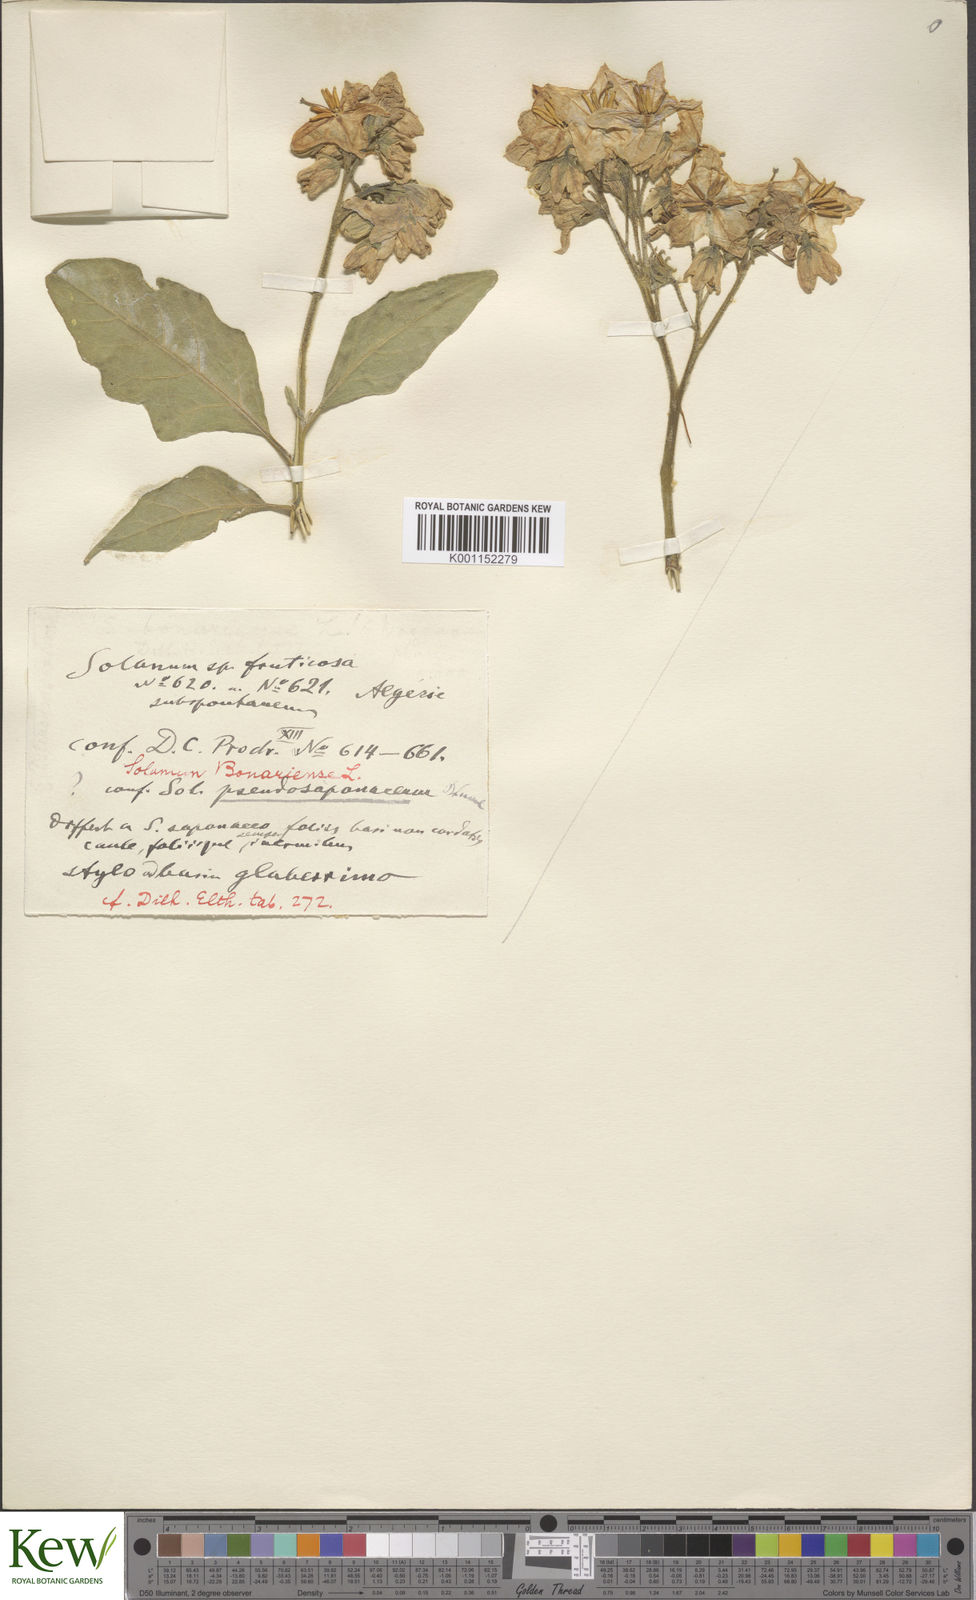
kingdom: Plantae
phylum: Tracheophyta
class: Magnoliopsida
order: Solanales
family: Solanaceae
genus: Solanum
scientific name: Solanum bonariense
